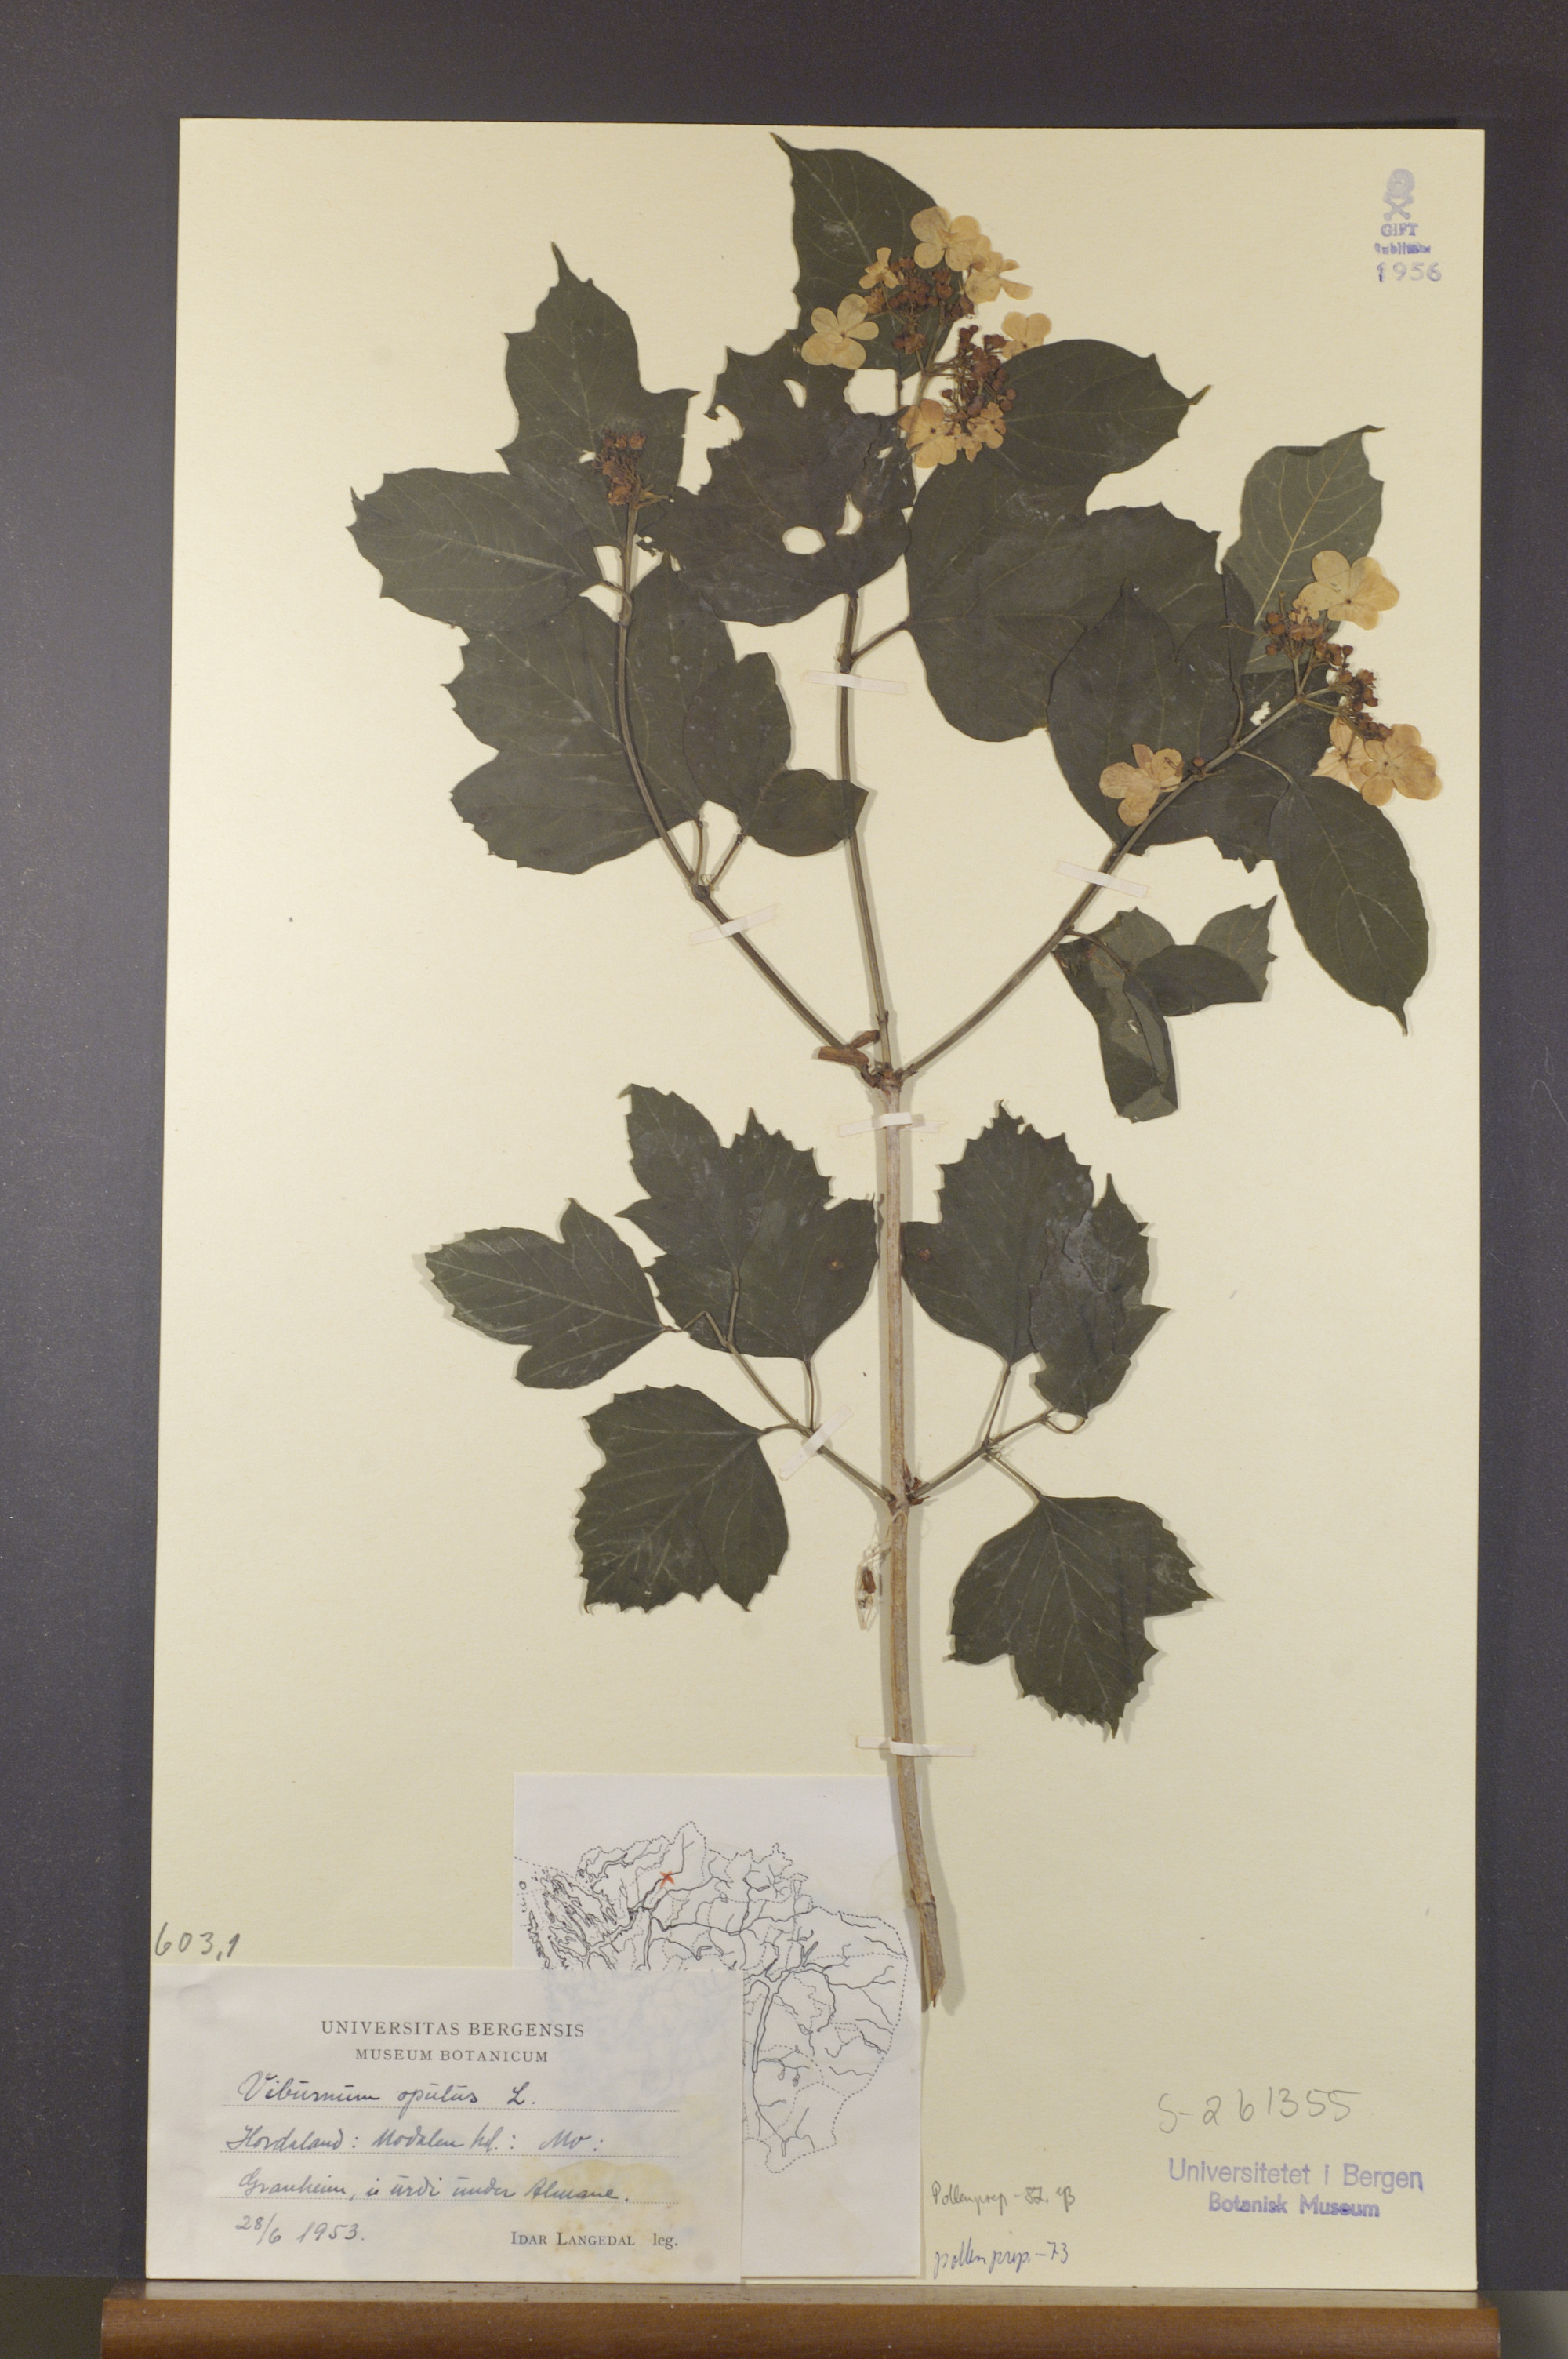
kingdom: Plantae
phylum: Tracheophyta
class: Magnoliopsida
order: Dipsacales
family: Viburnaceae
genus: Viburnum
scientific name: Viburnum opulus
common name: Guelder-rose
